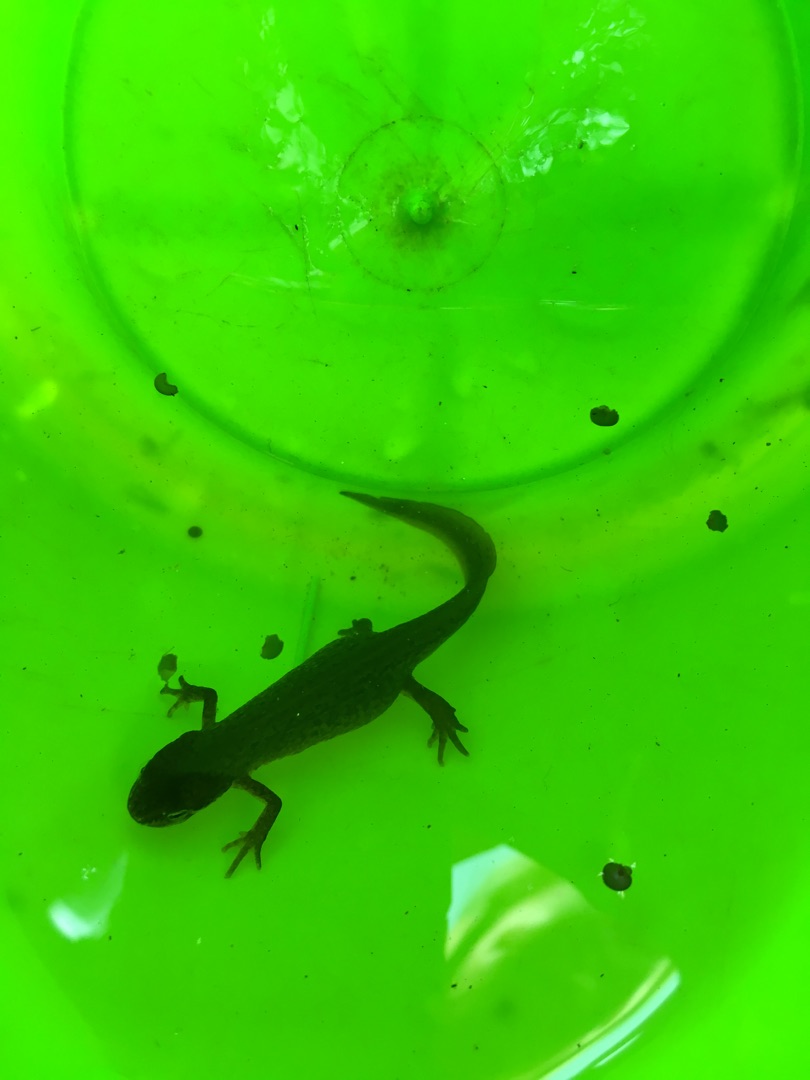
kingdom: Animalia
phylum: Chordata
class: Amphibia
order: Caudata
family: Salamandridae
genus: Lissotriton
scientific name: Lissotriton vulgaris
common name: Lille vandsalamander
